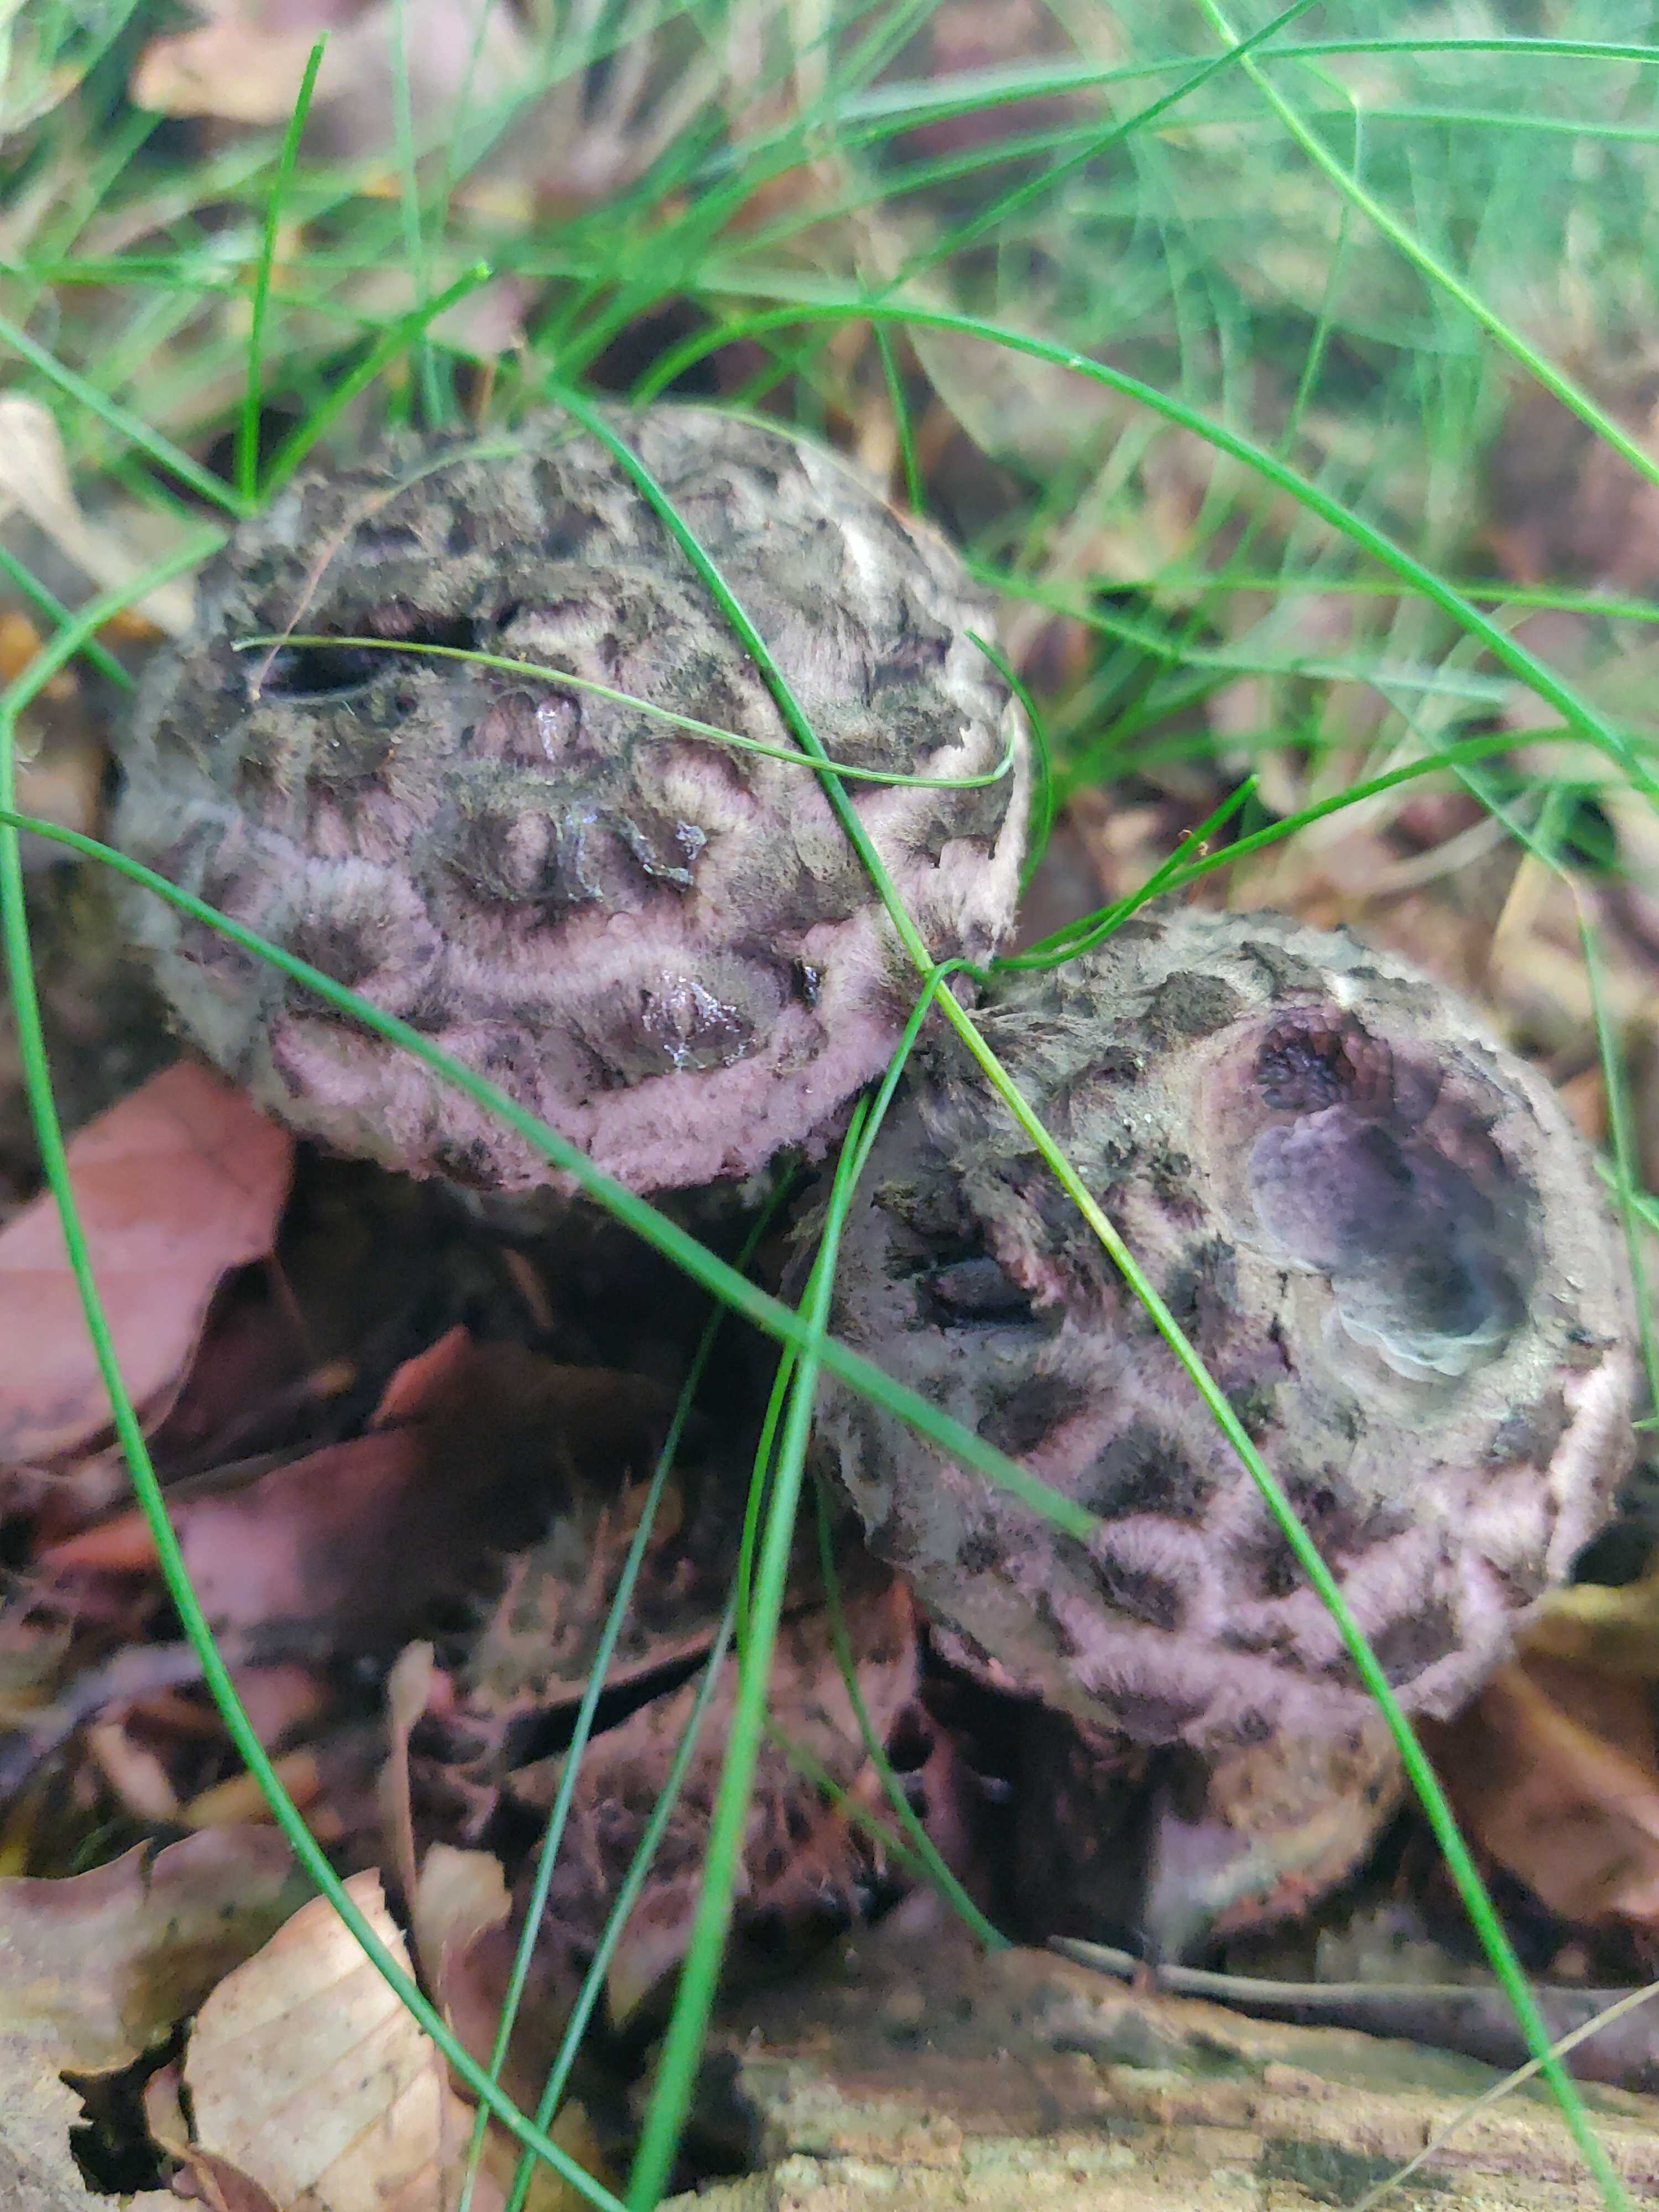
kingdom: Fungi
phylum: Basidiomycota
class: Agaricomycetes
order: Boletales
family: Boletaceae
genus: Strobilomyces
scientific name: Strobilomyces strobilaceus
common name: koglerørhat
